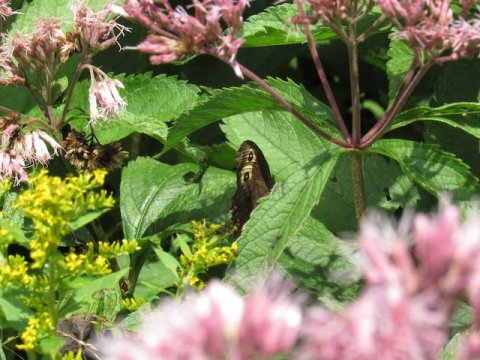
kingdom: Animalia
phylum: Arthropoda
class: Insecta
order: Lepidoptera
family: Nymphalidae
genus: Cercyonis
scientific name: Cercyonis pegala
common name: Common Wood-Nymph
